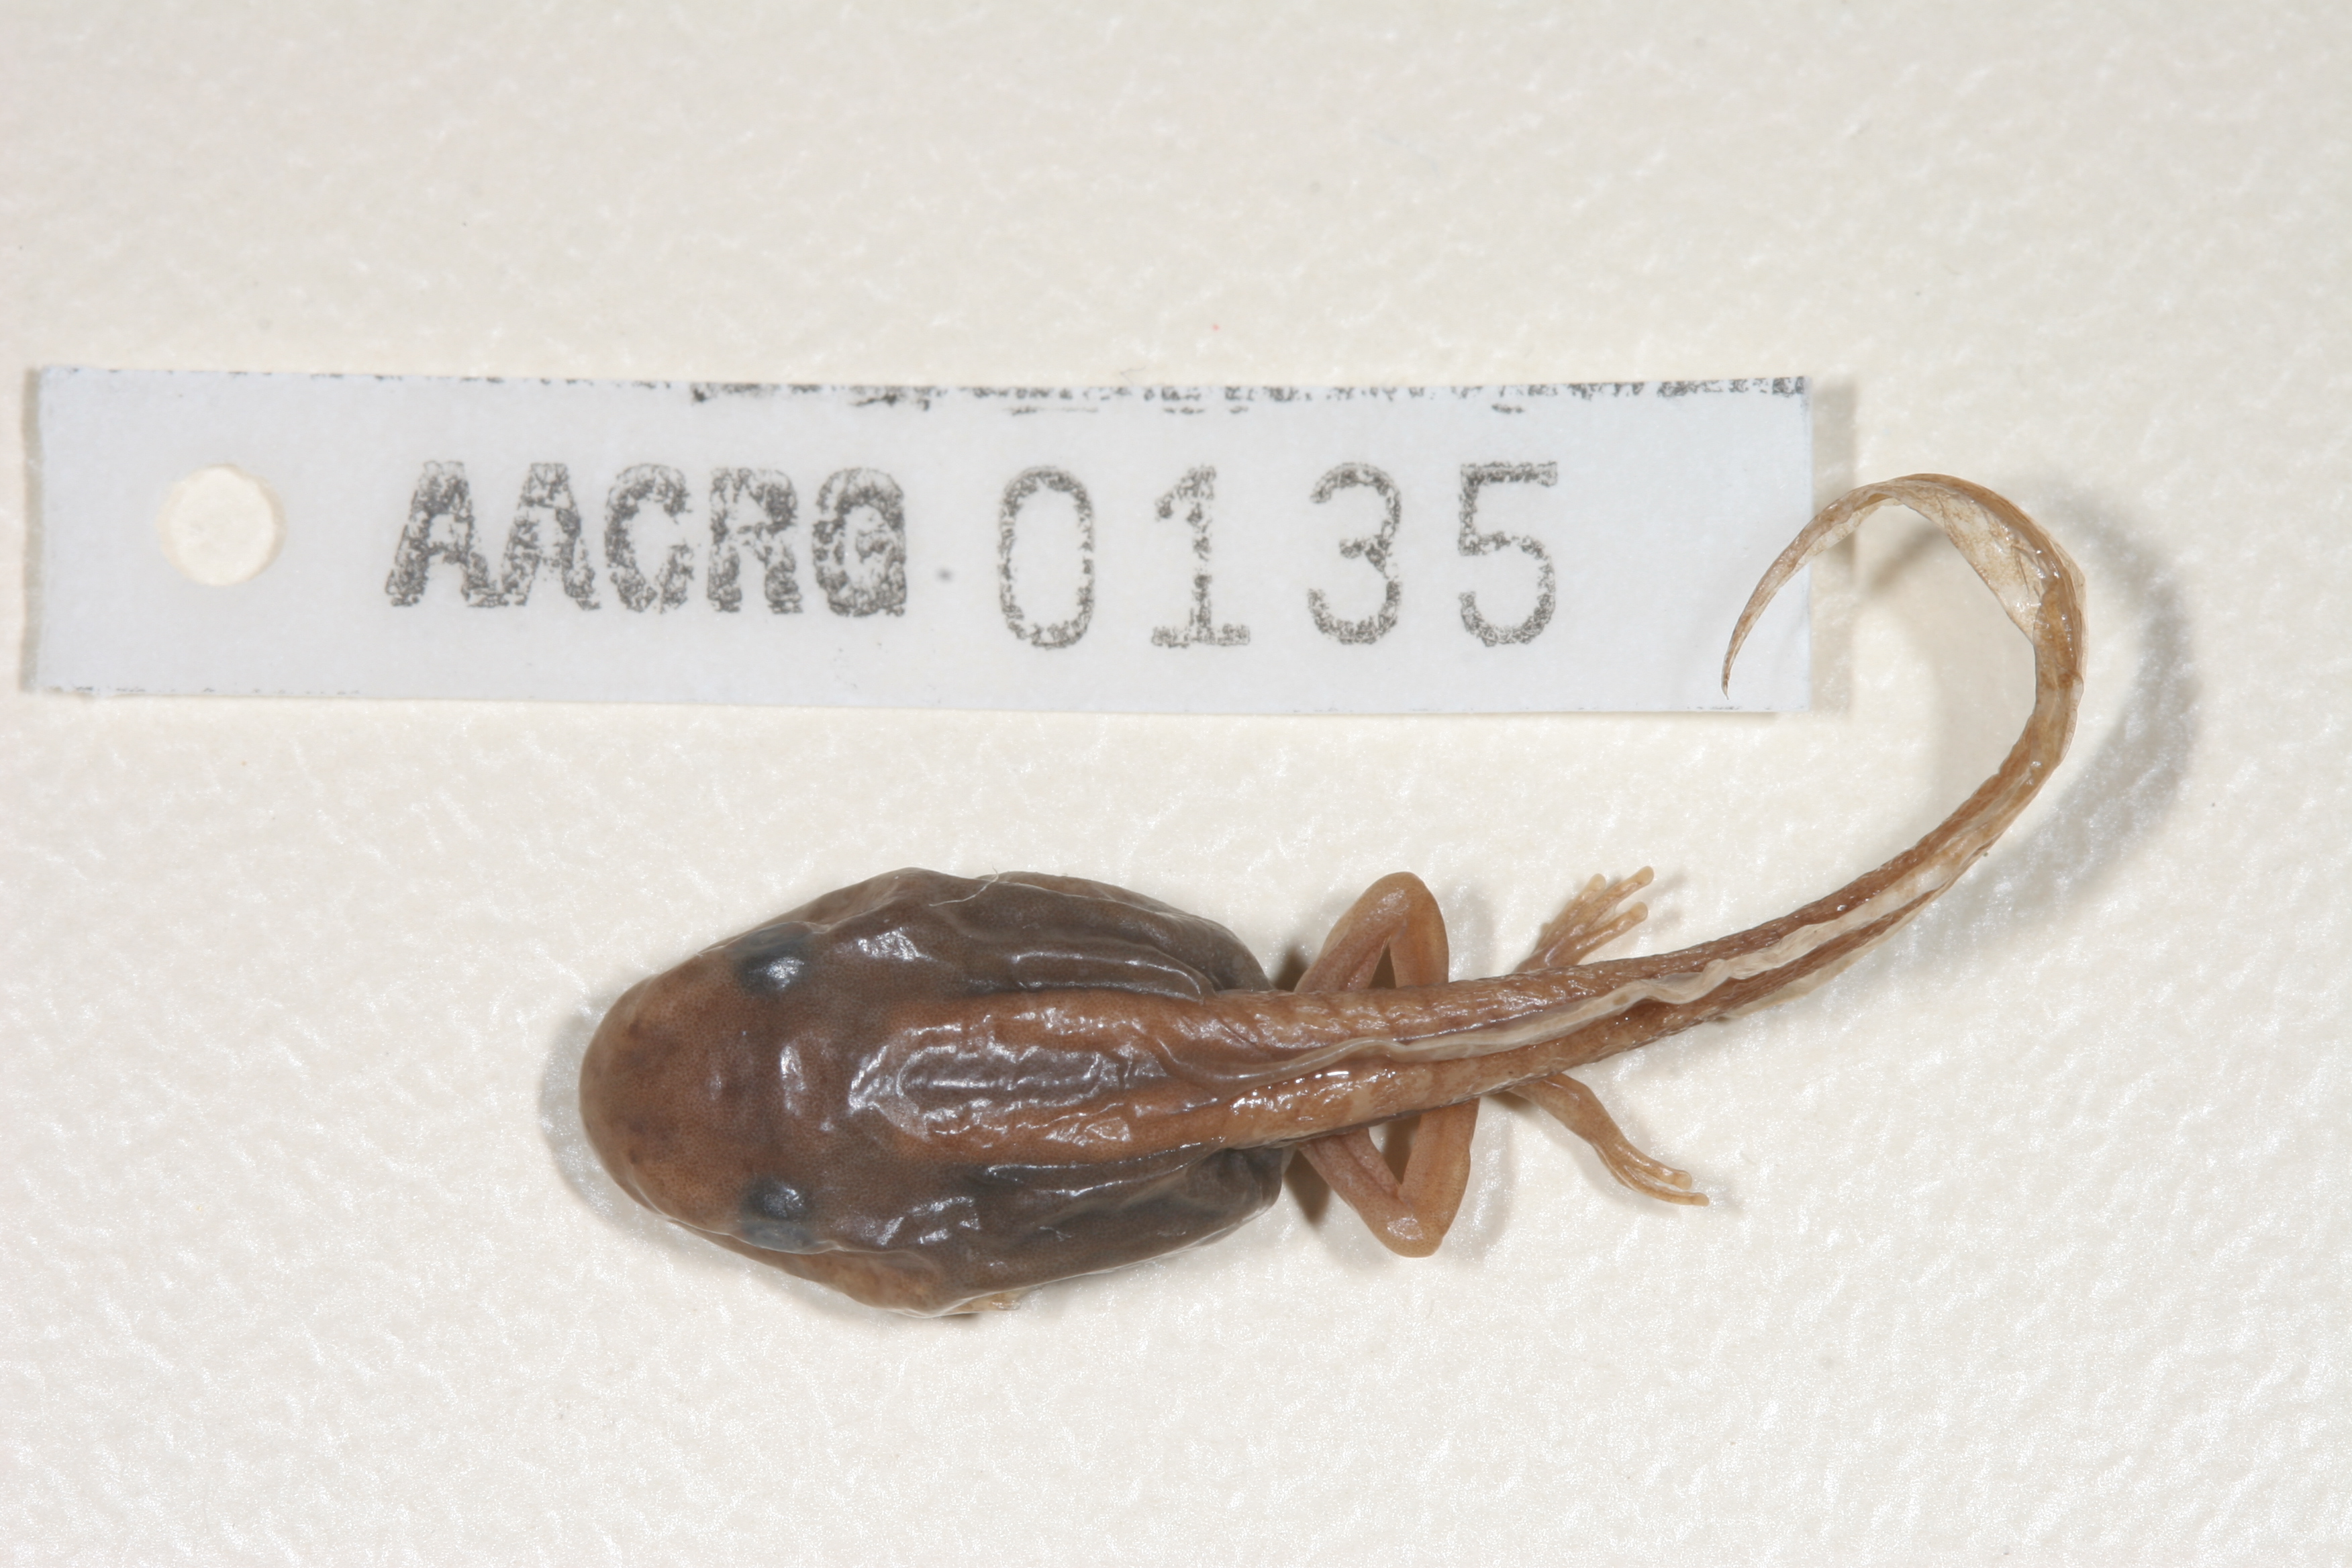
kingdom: Animalia
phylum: Chordata
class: Amphibia
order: Anura
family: Hyperoliidae
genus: Hyperolius
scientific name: Hyperolius semidiscus
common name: Yellow-striped reed frog
